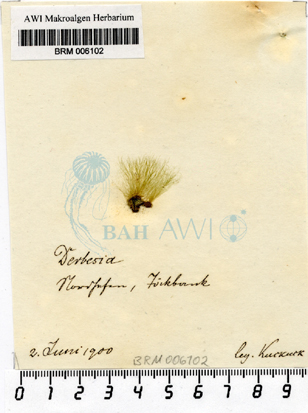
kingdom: Plantae
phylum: Chlorophyta
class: Ulvophyceae
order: Bryopsidales
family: Derbesiaceae
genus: Derbesia
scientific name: Derbesia
